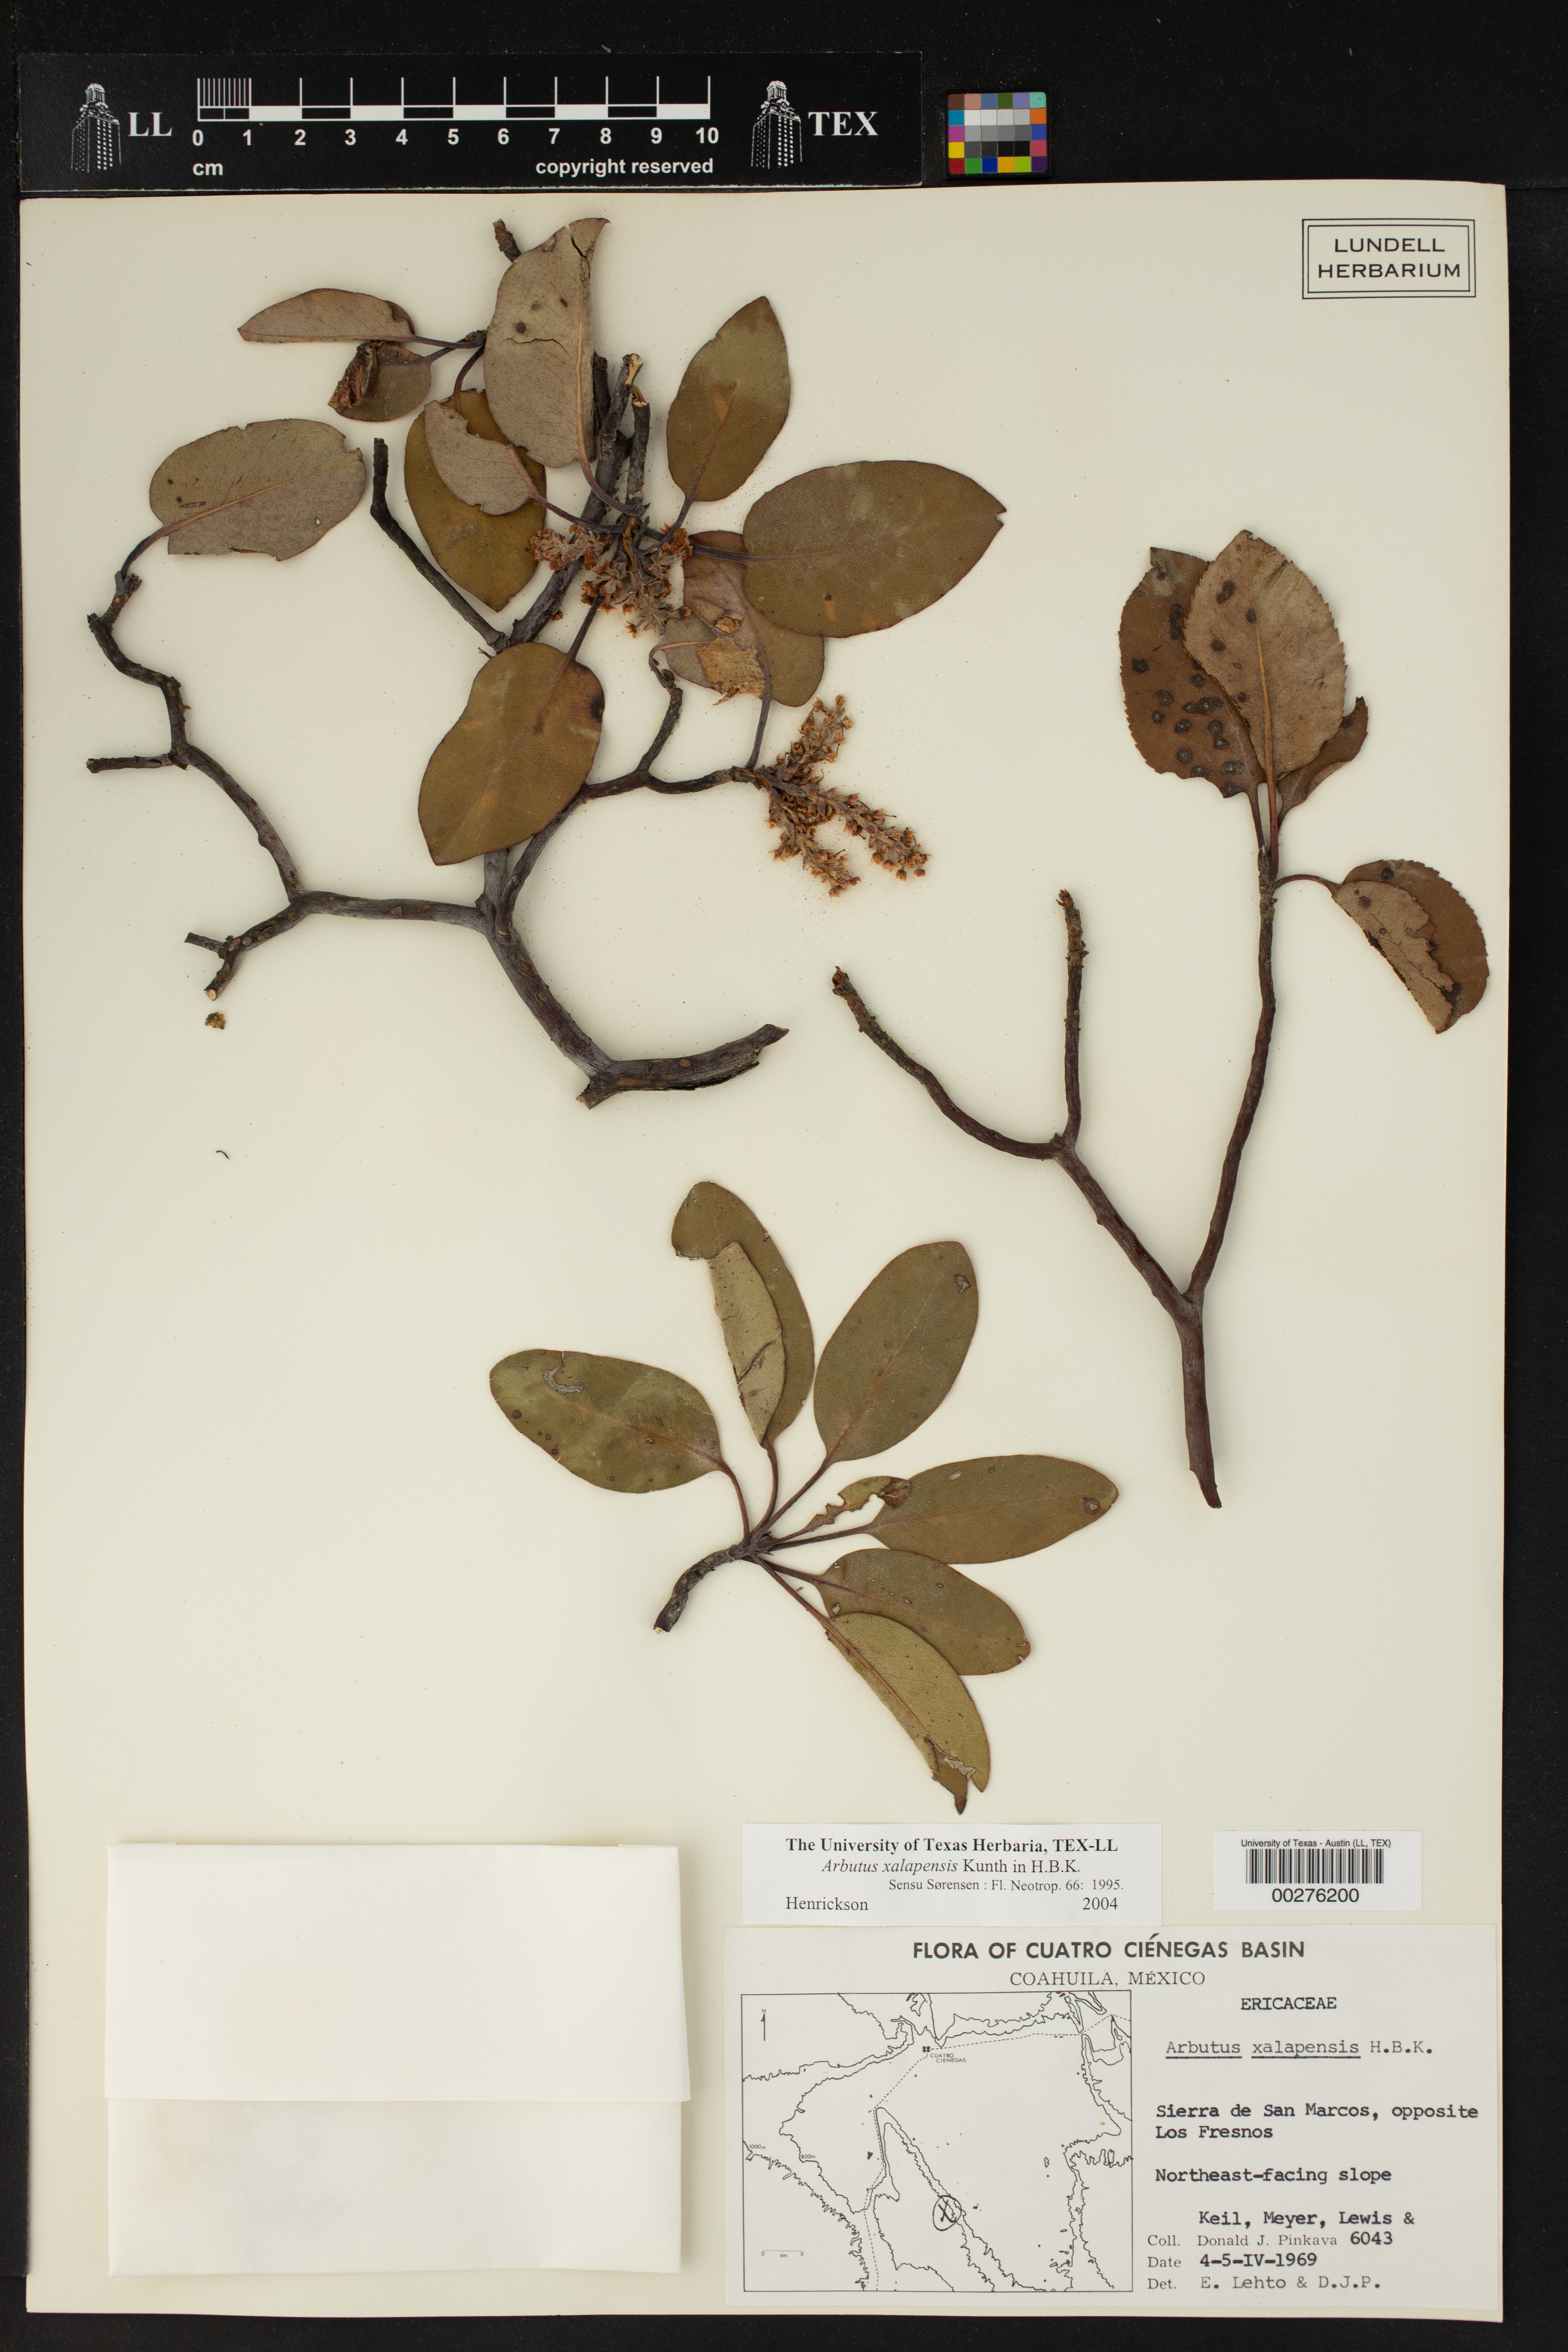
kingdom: Plantae
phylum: Tracheophyta
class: Magnoliopsida
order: Ericales
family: Ericaceae
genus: Arbutus
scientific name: Arbutus xalapensis
